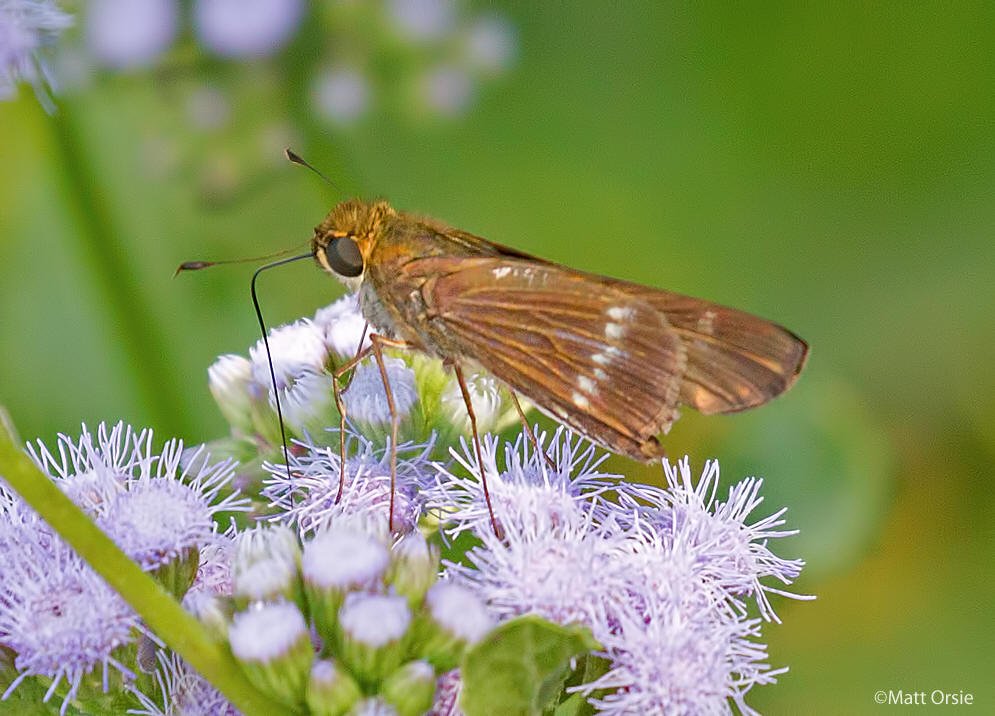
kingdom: Animalia
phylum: Arthropoda
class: Insecta
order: Lepidoptera
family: Hesperiidae
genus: Turesis
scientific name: Turesis lucas
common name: Purple-washed Skipper
